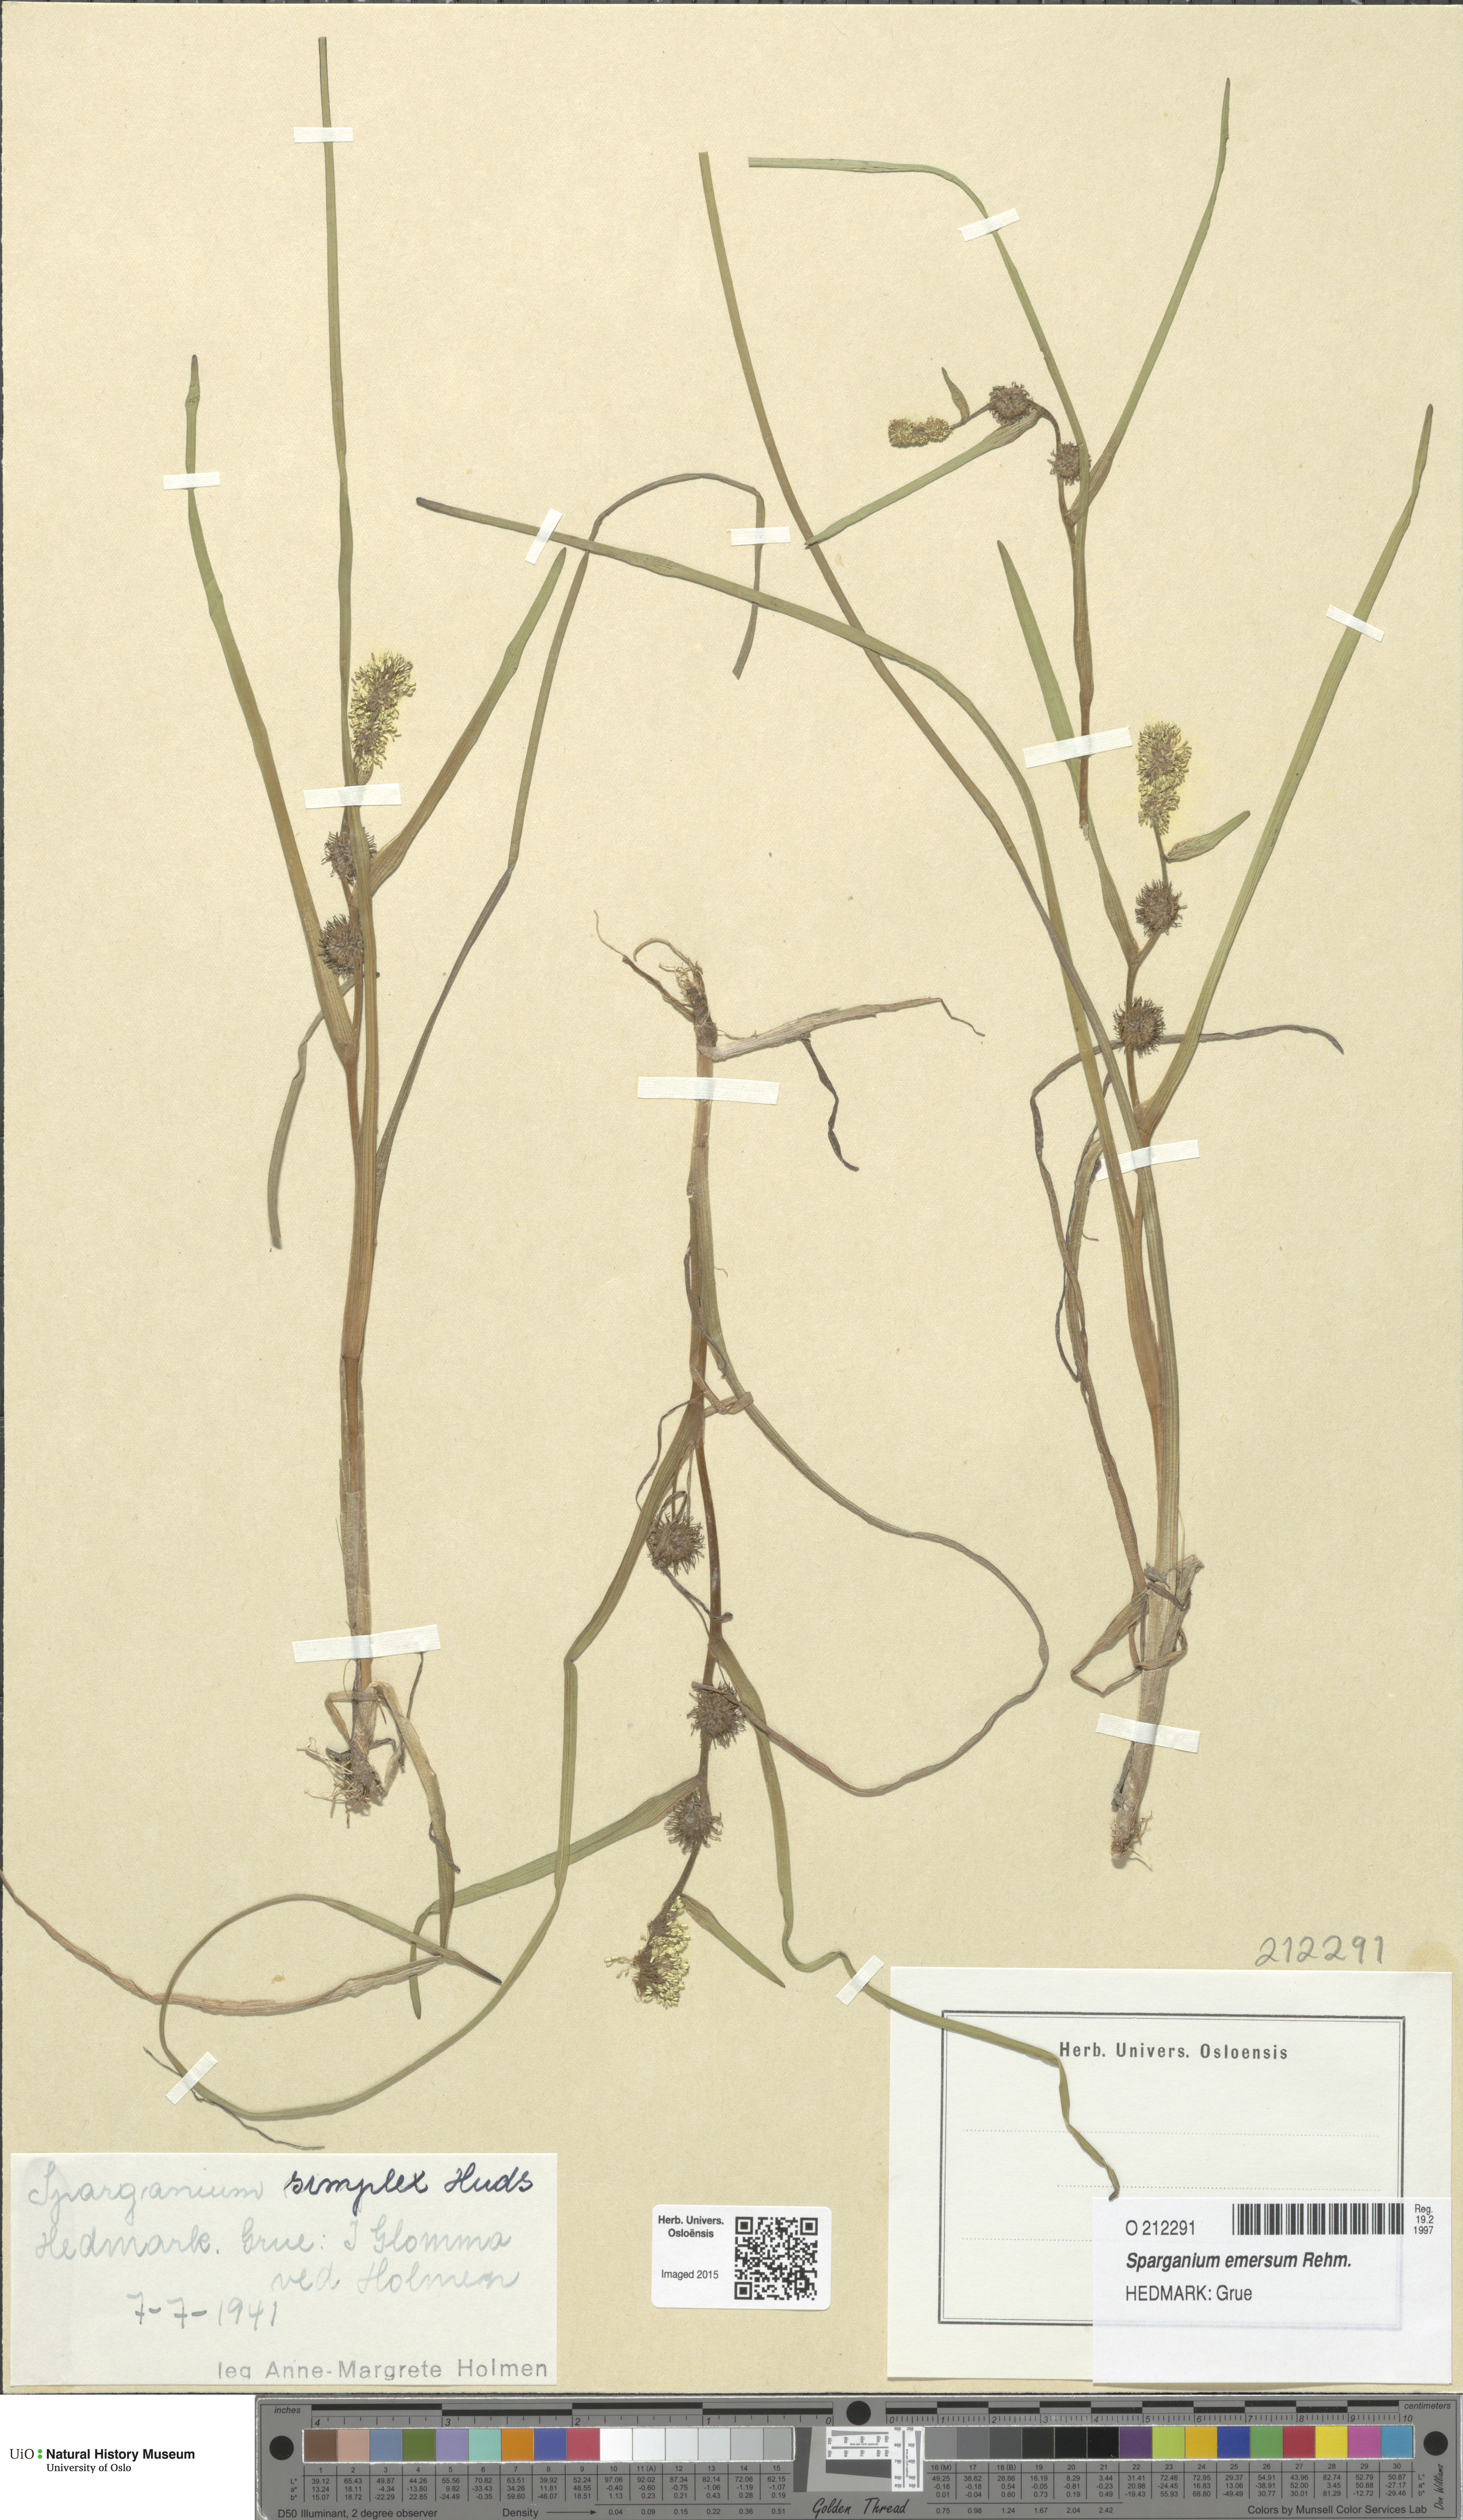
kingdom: Plantae
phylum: Tracheophyta
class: Liliopsida
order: Poales
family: Typhaceae
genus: Sparganium
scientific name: Sparganium emersum
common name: Unbranched bur-reed
